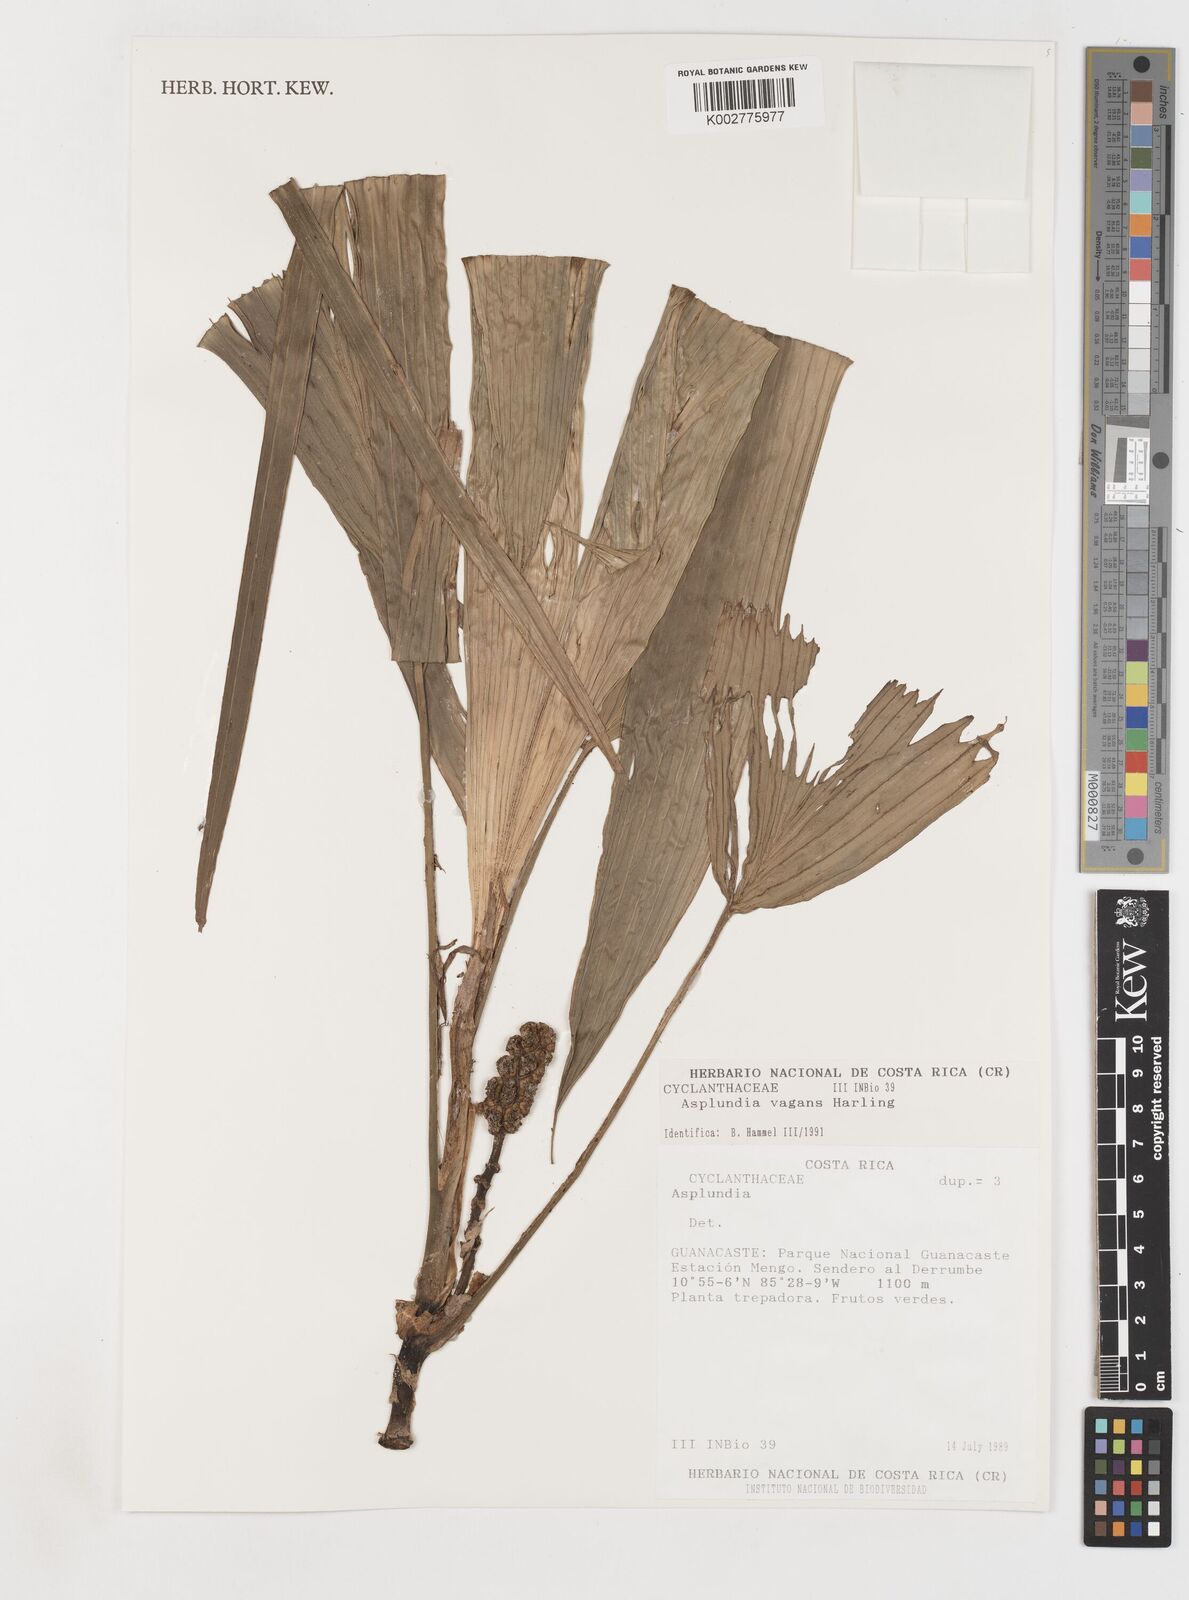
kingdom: Plantae
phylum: Tracheophyta
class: Liliopsida
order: Pandanales
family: Cyclanthaceae
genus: Asplundia
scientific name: Asplundia vagans
